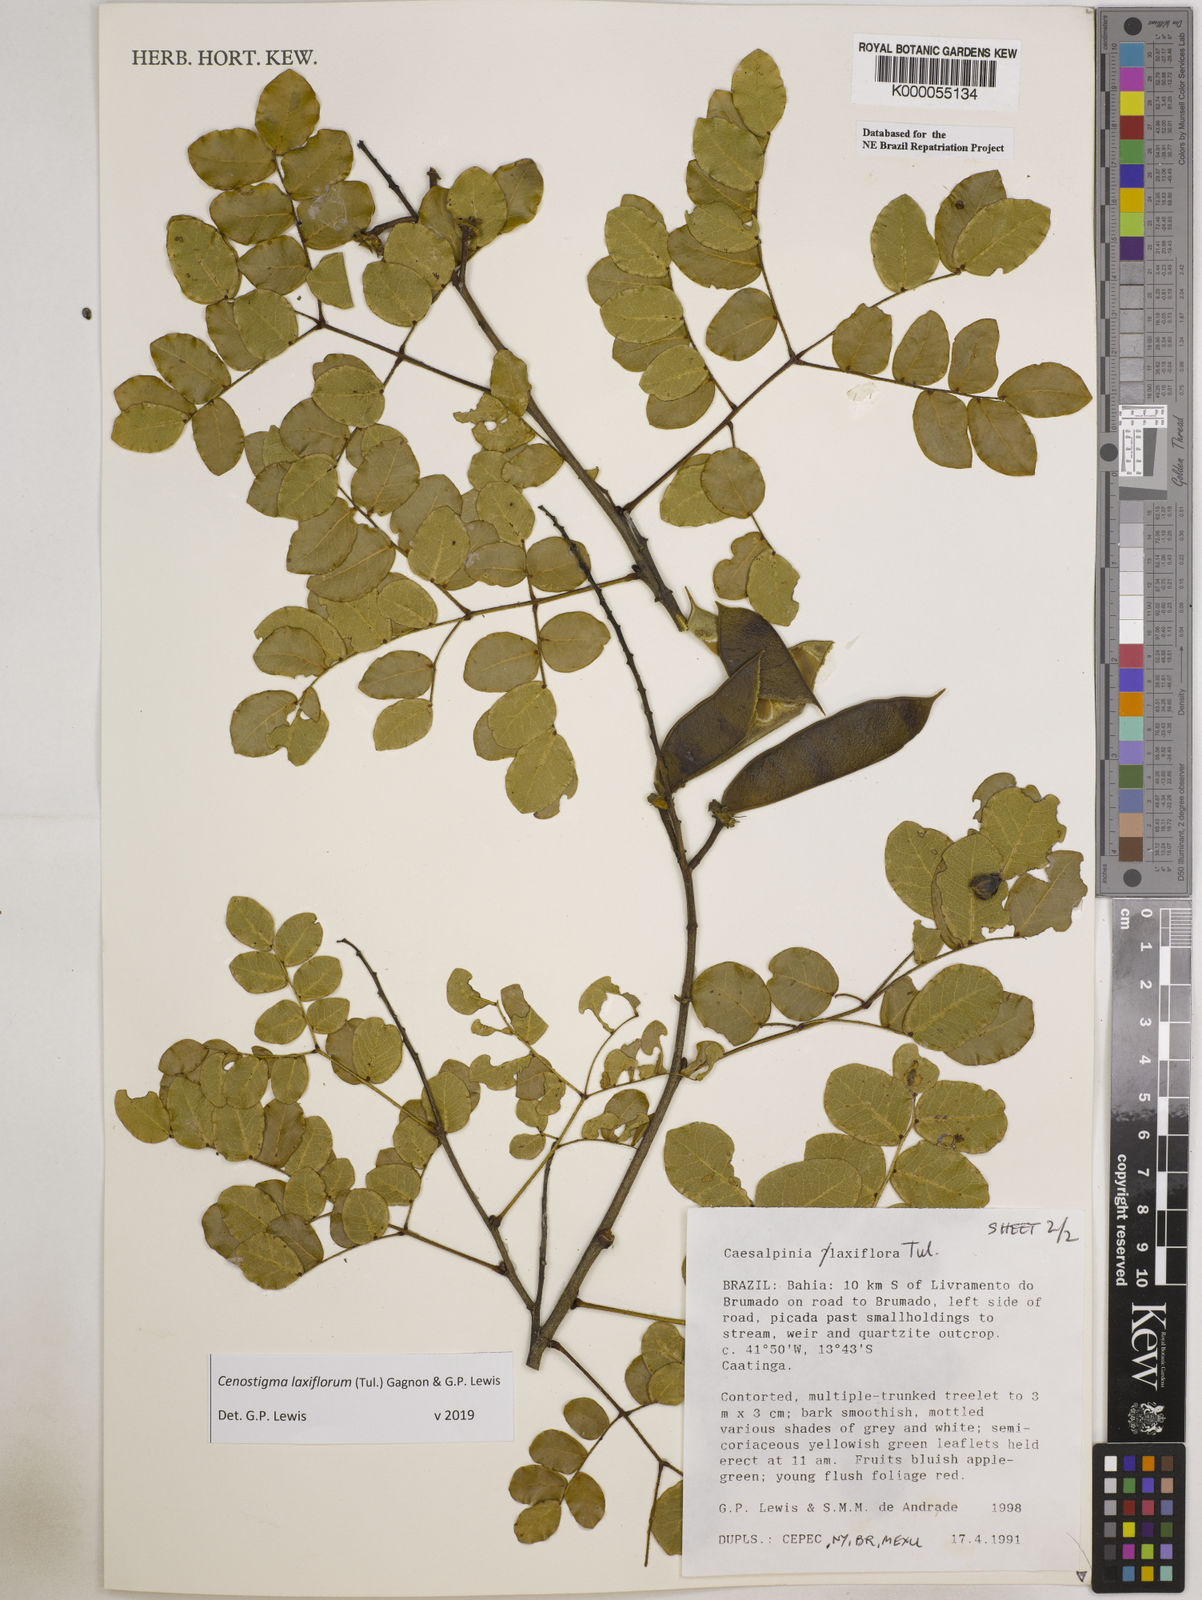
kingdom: Plantae
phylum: Tracheophyta
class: Magnoliopsida
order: Fabales
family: Fabaceae
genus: Cenostigma
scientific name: Cenostigma laxiflorum
